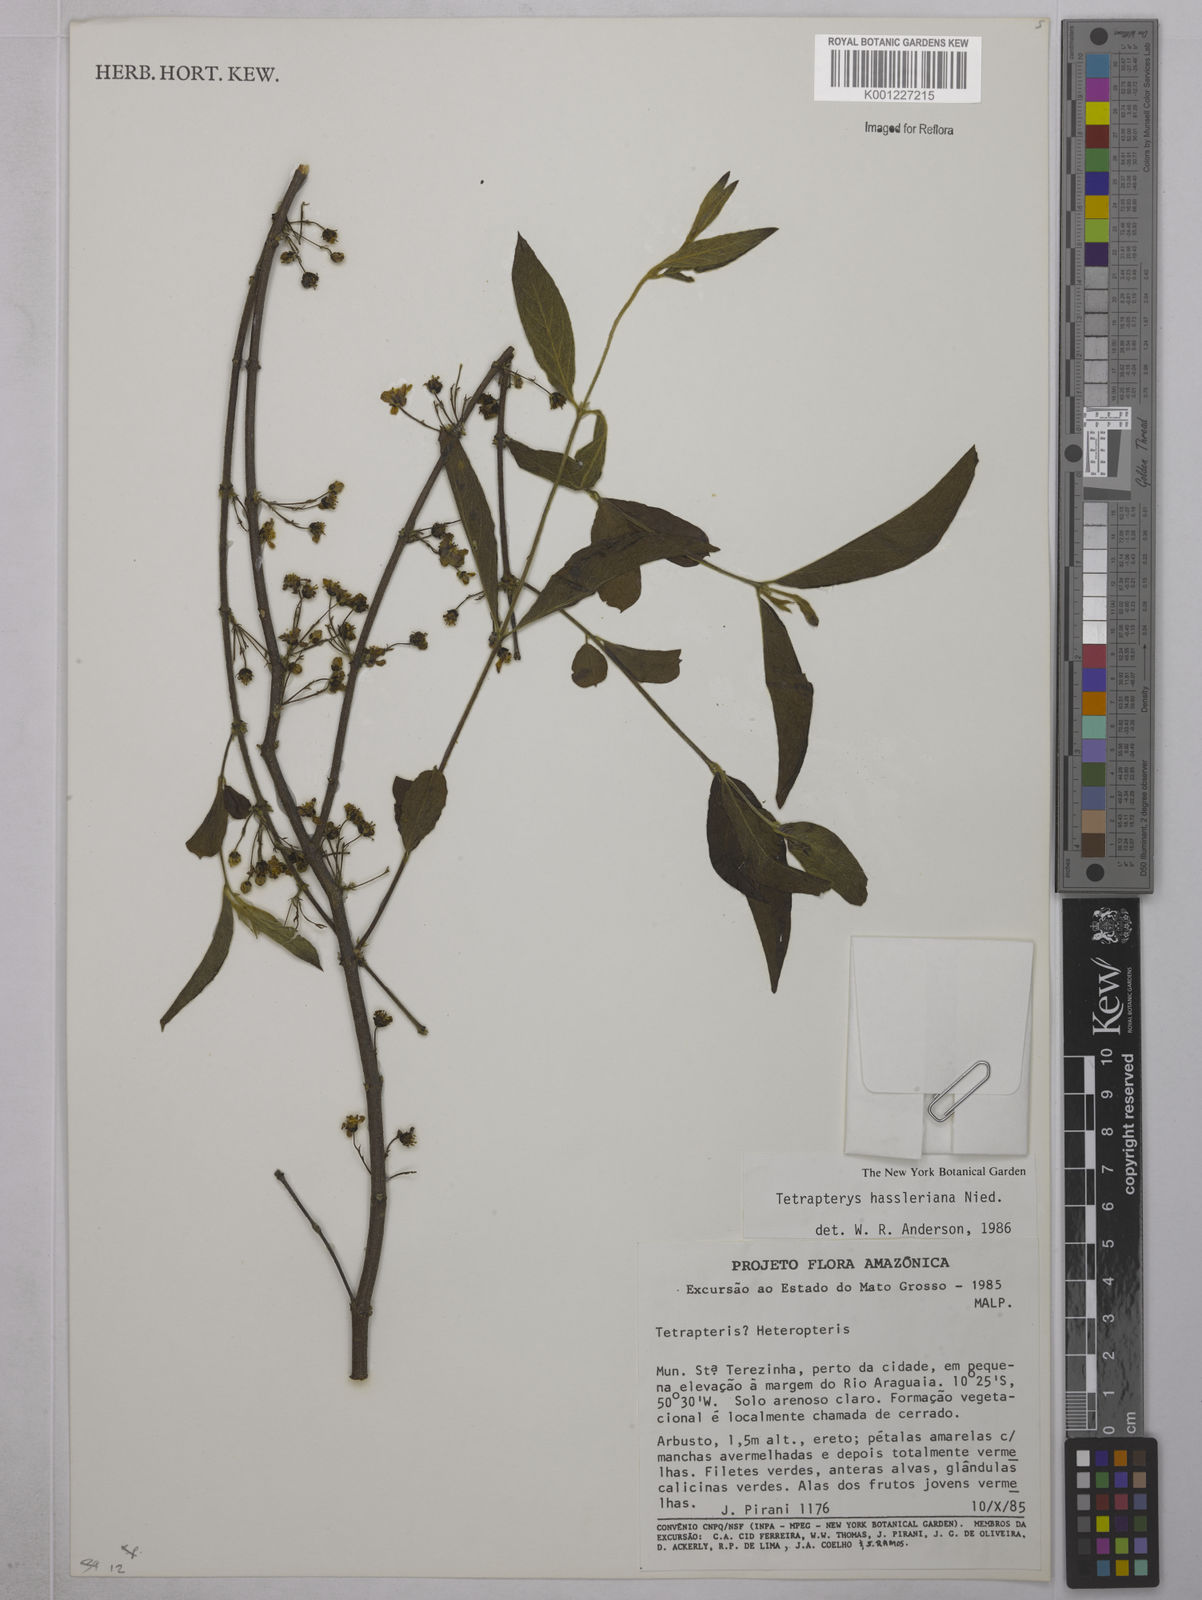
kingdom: Plantae
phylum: Tracheophyta
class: Magnoliopsida
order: Malpighiales
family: Malpighiaceae
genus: Glicophyllum
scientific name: Glicophyllum hasslerianum
